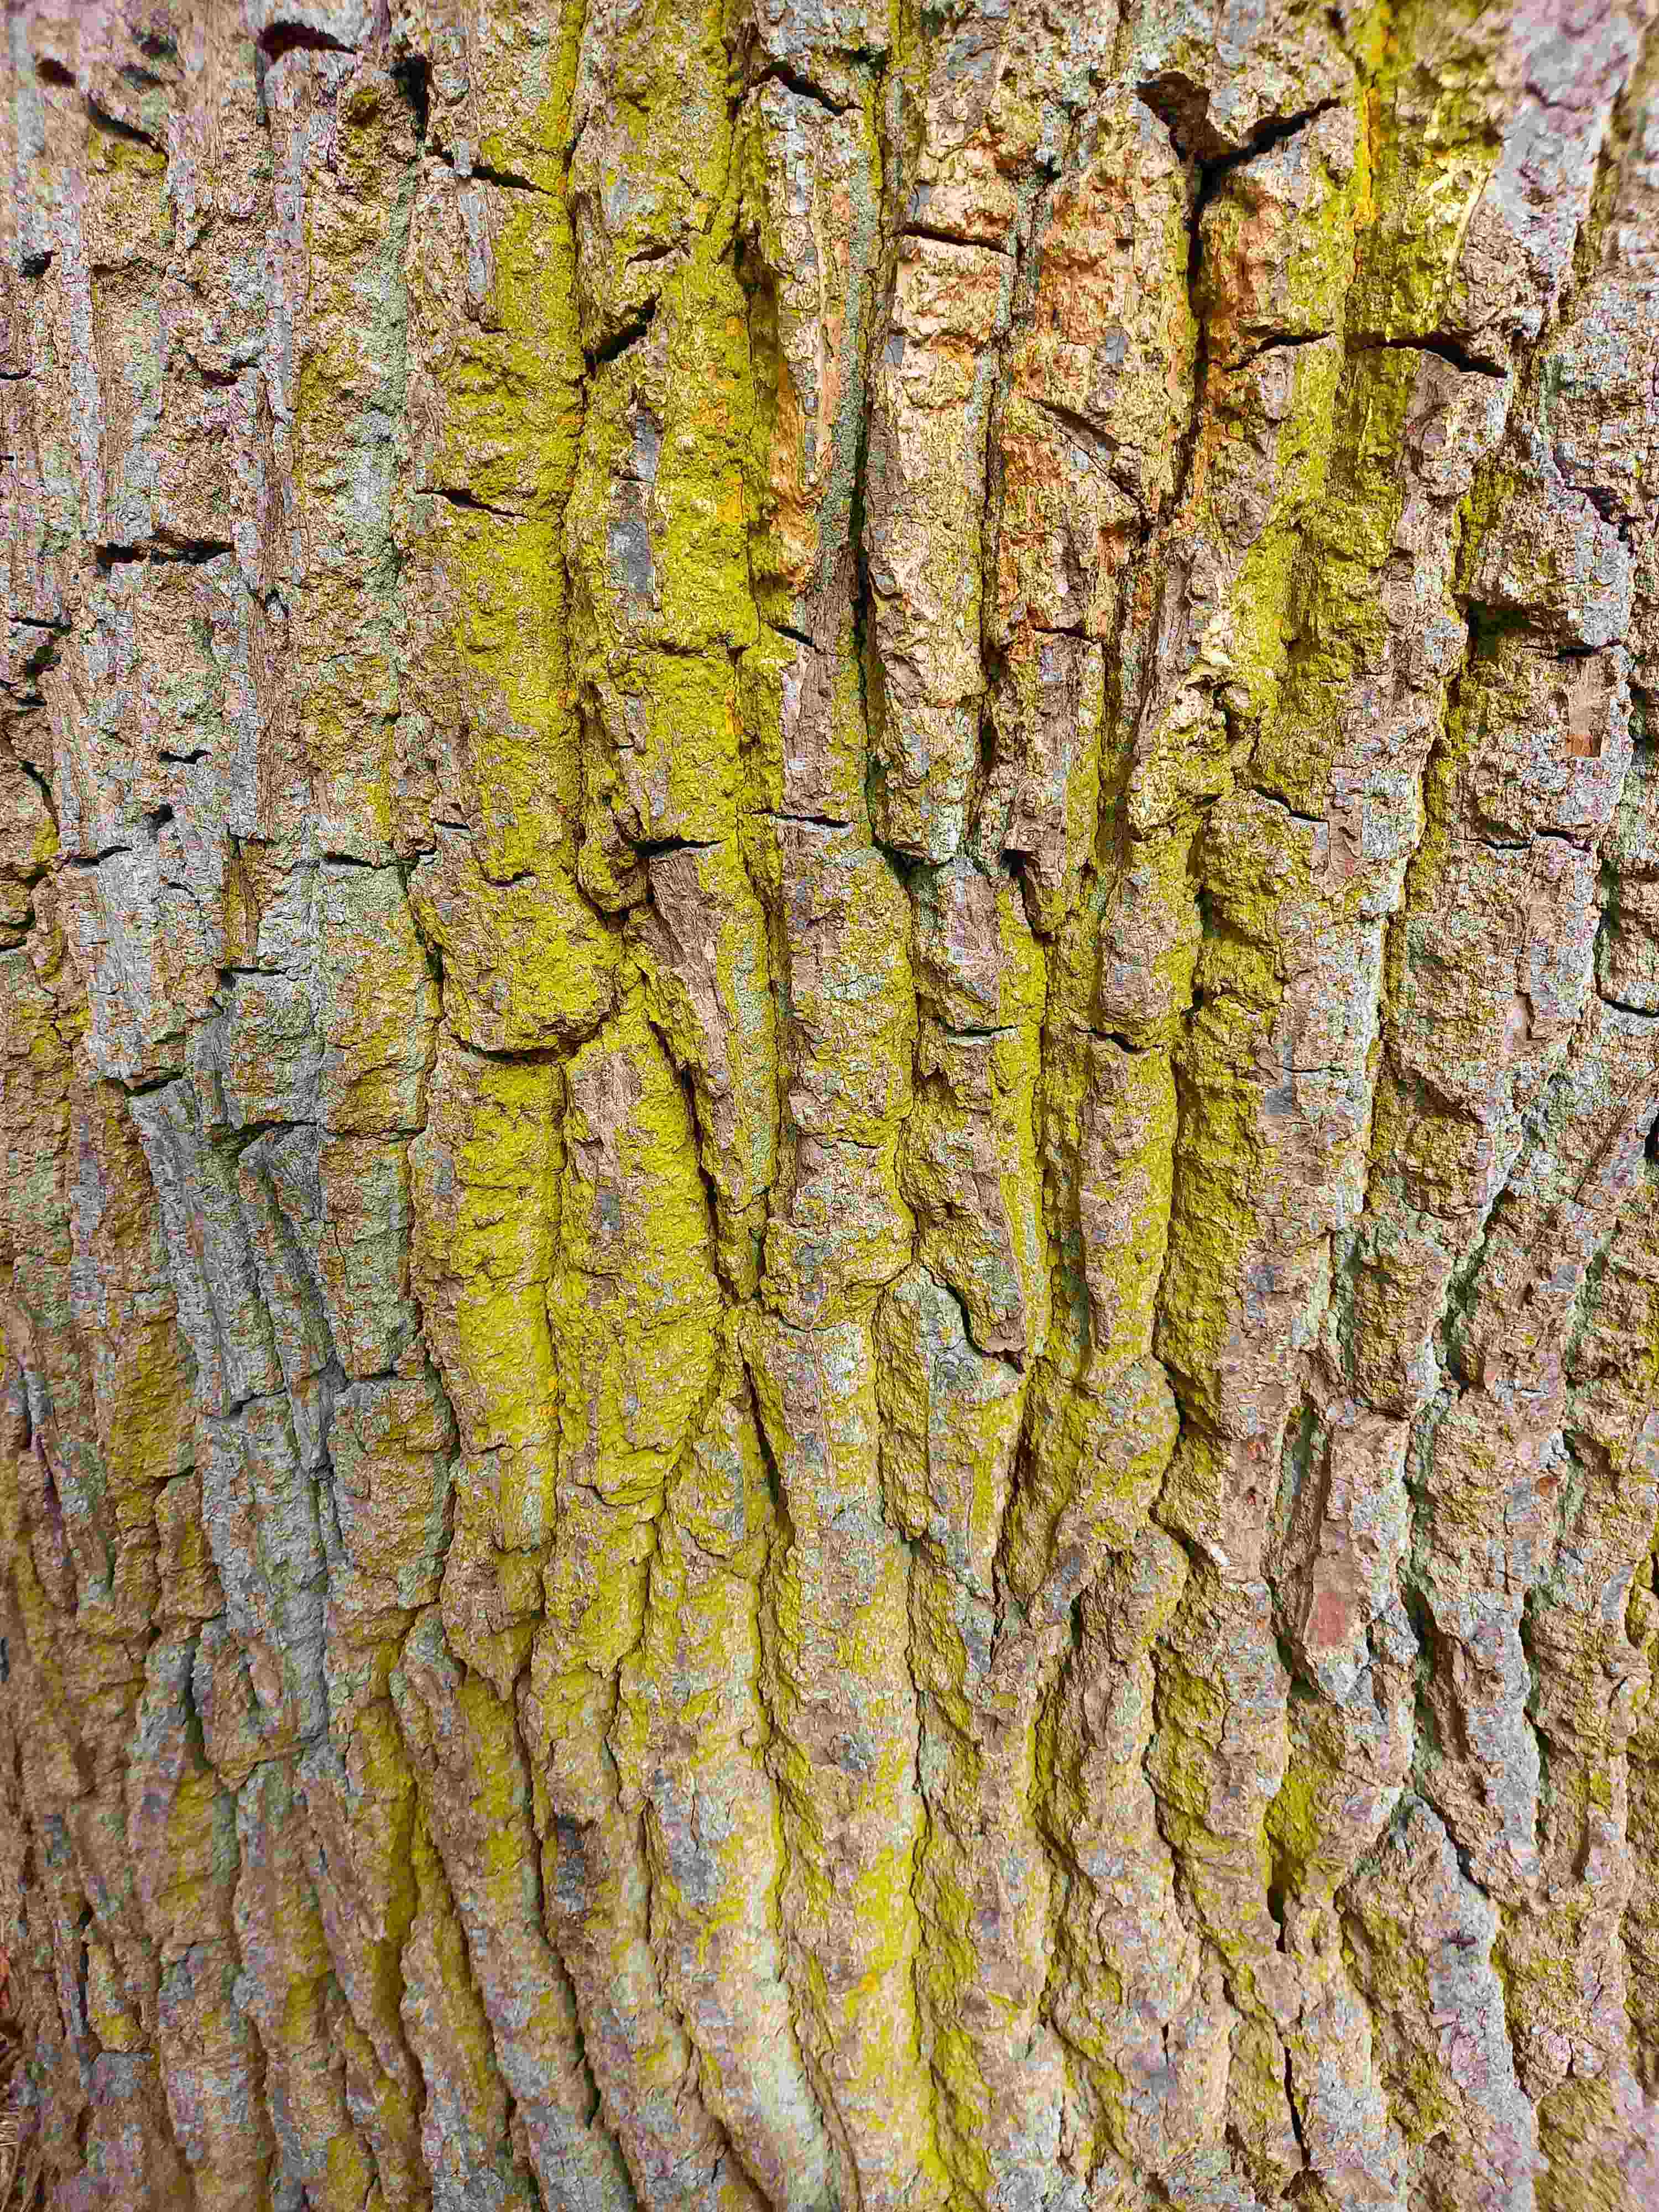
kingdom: Fungi
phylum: Ascomycota
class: Arthoniomycetes
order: Arthoniales
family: Chrysotrichaceae
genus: Chrysothrix
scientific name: Chrysothrix candelaris
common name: gul støvlav
